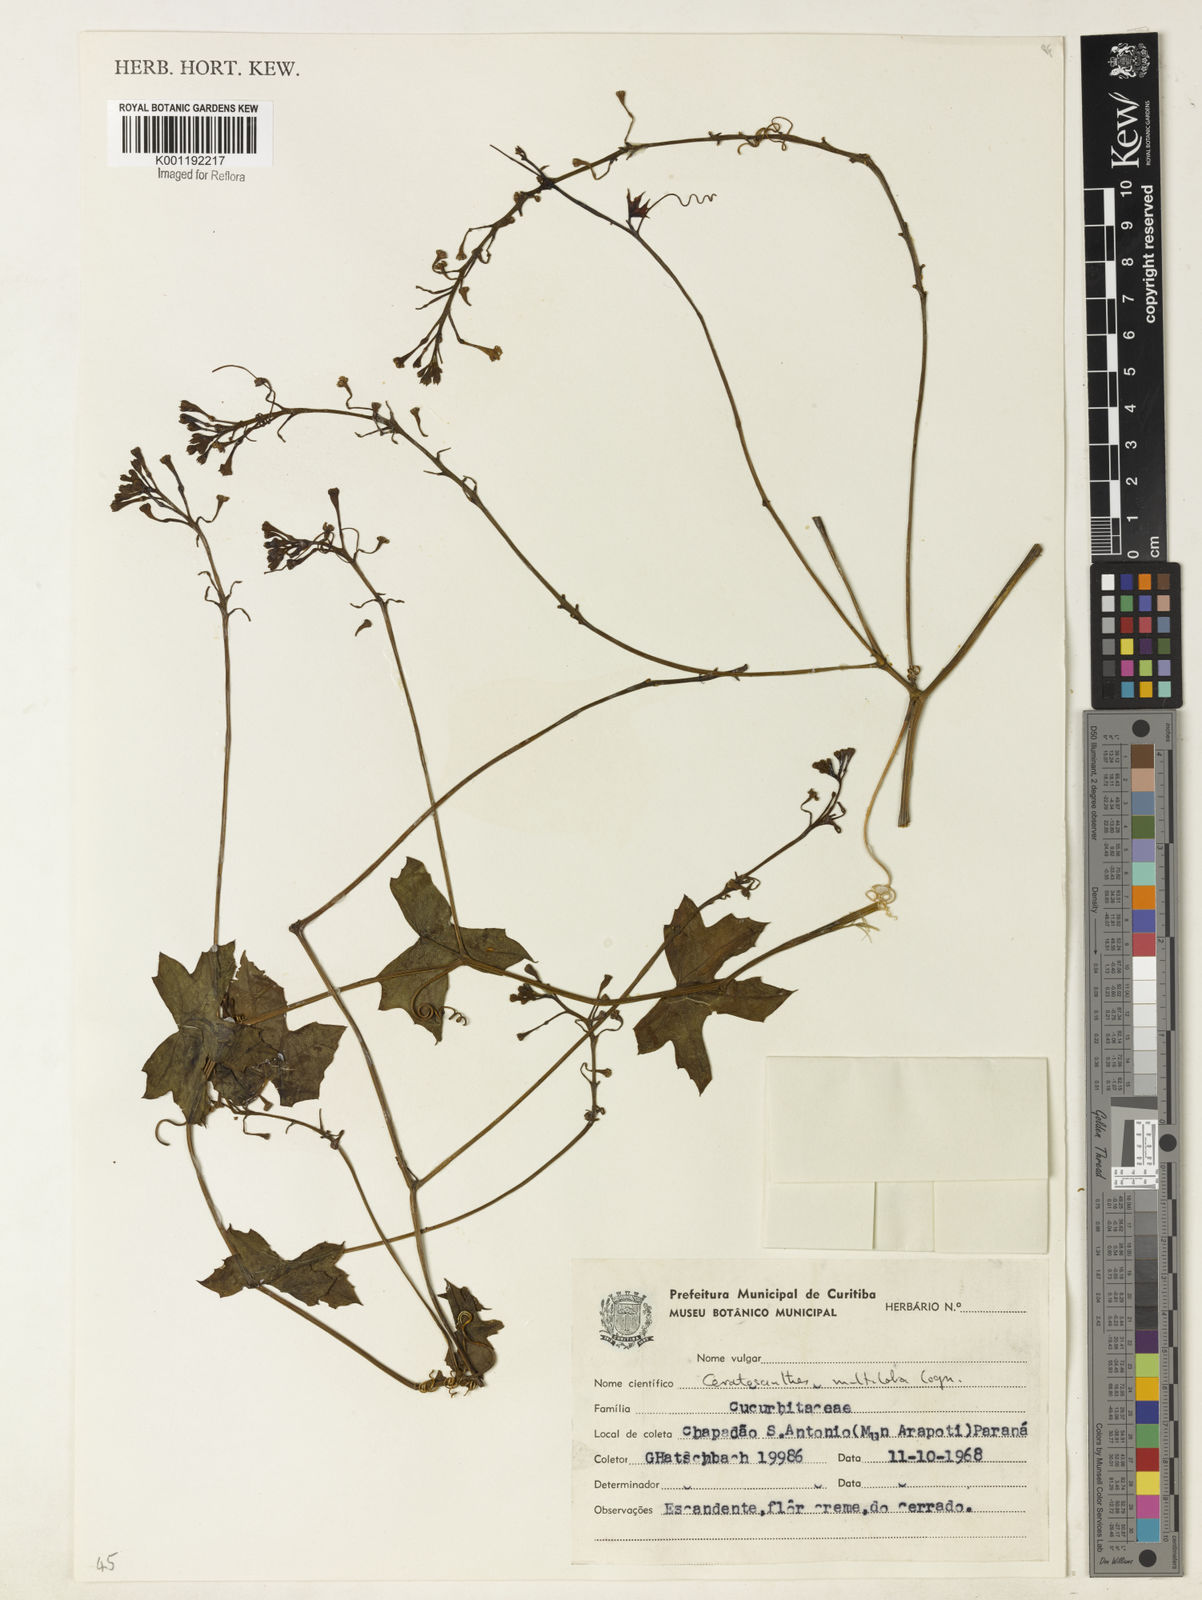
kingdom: Plantae
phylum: Tracheophyta
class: Magnoliopsida
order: Cucurbitales
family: Cucurbitaceae
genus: Ceratosanthes
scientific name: Ceratosanthes multiloba
